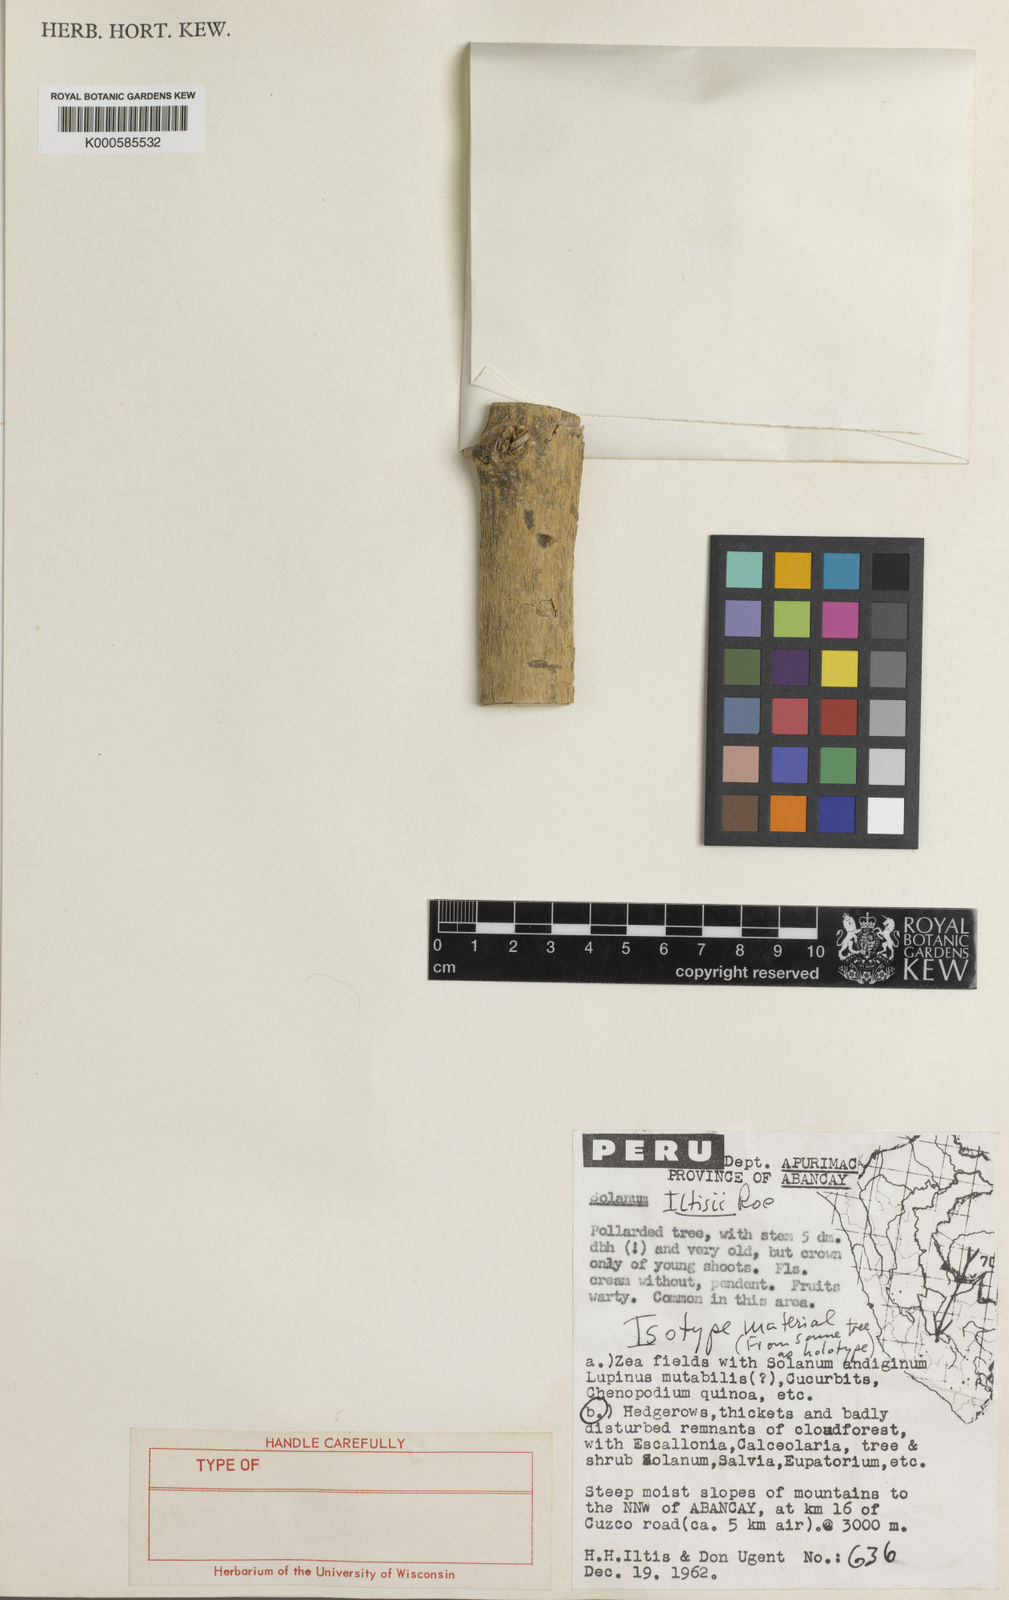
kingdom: Plantae
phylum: Tracheophyta
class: Magnoliopsida
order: Solanales
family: Solanaceae
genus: Solanum
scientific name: Solanum iltisii
